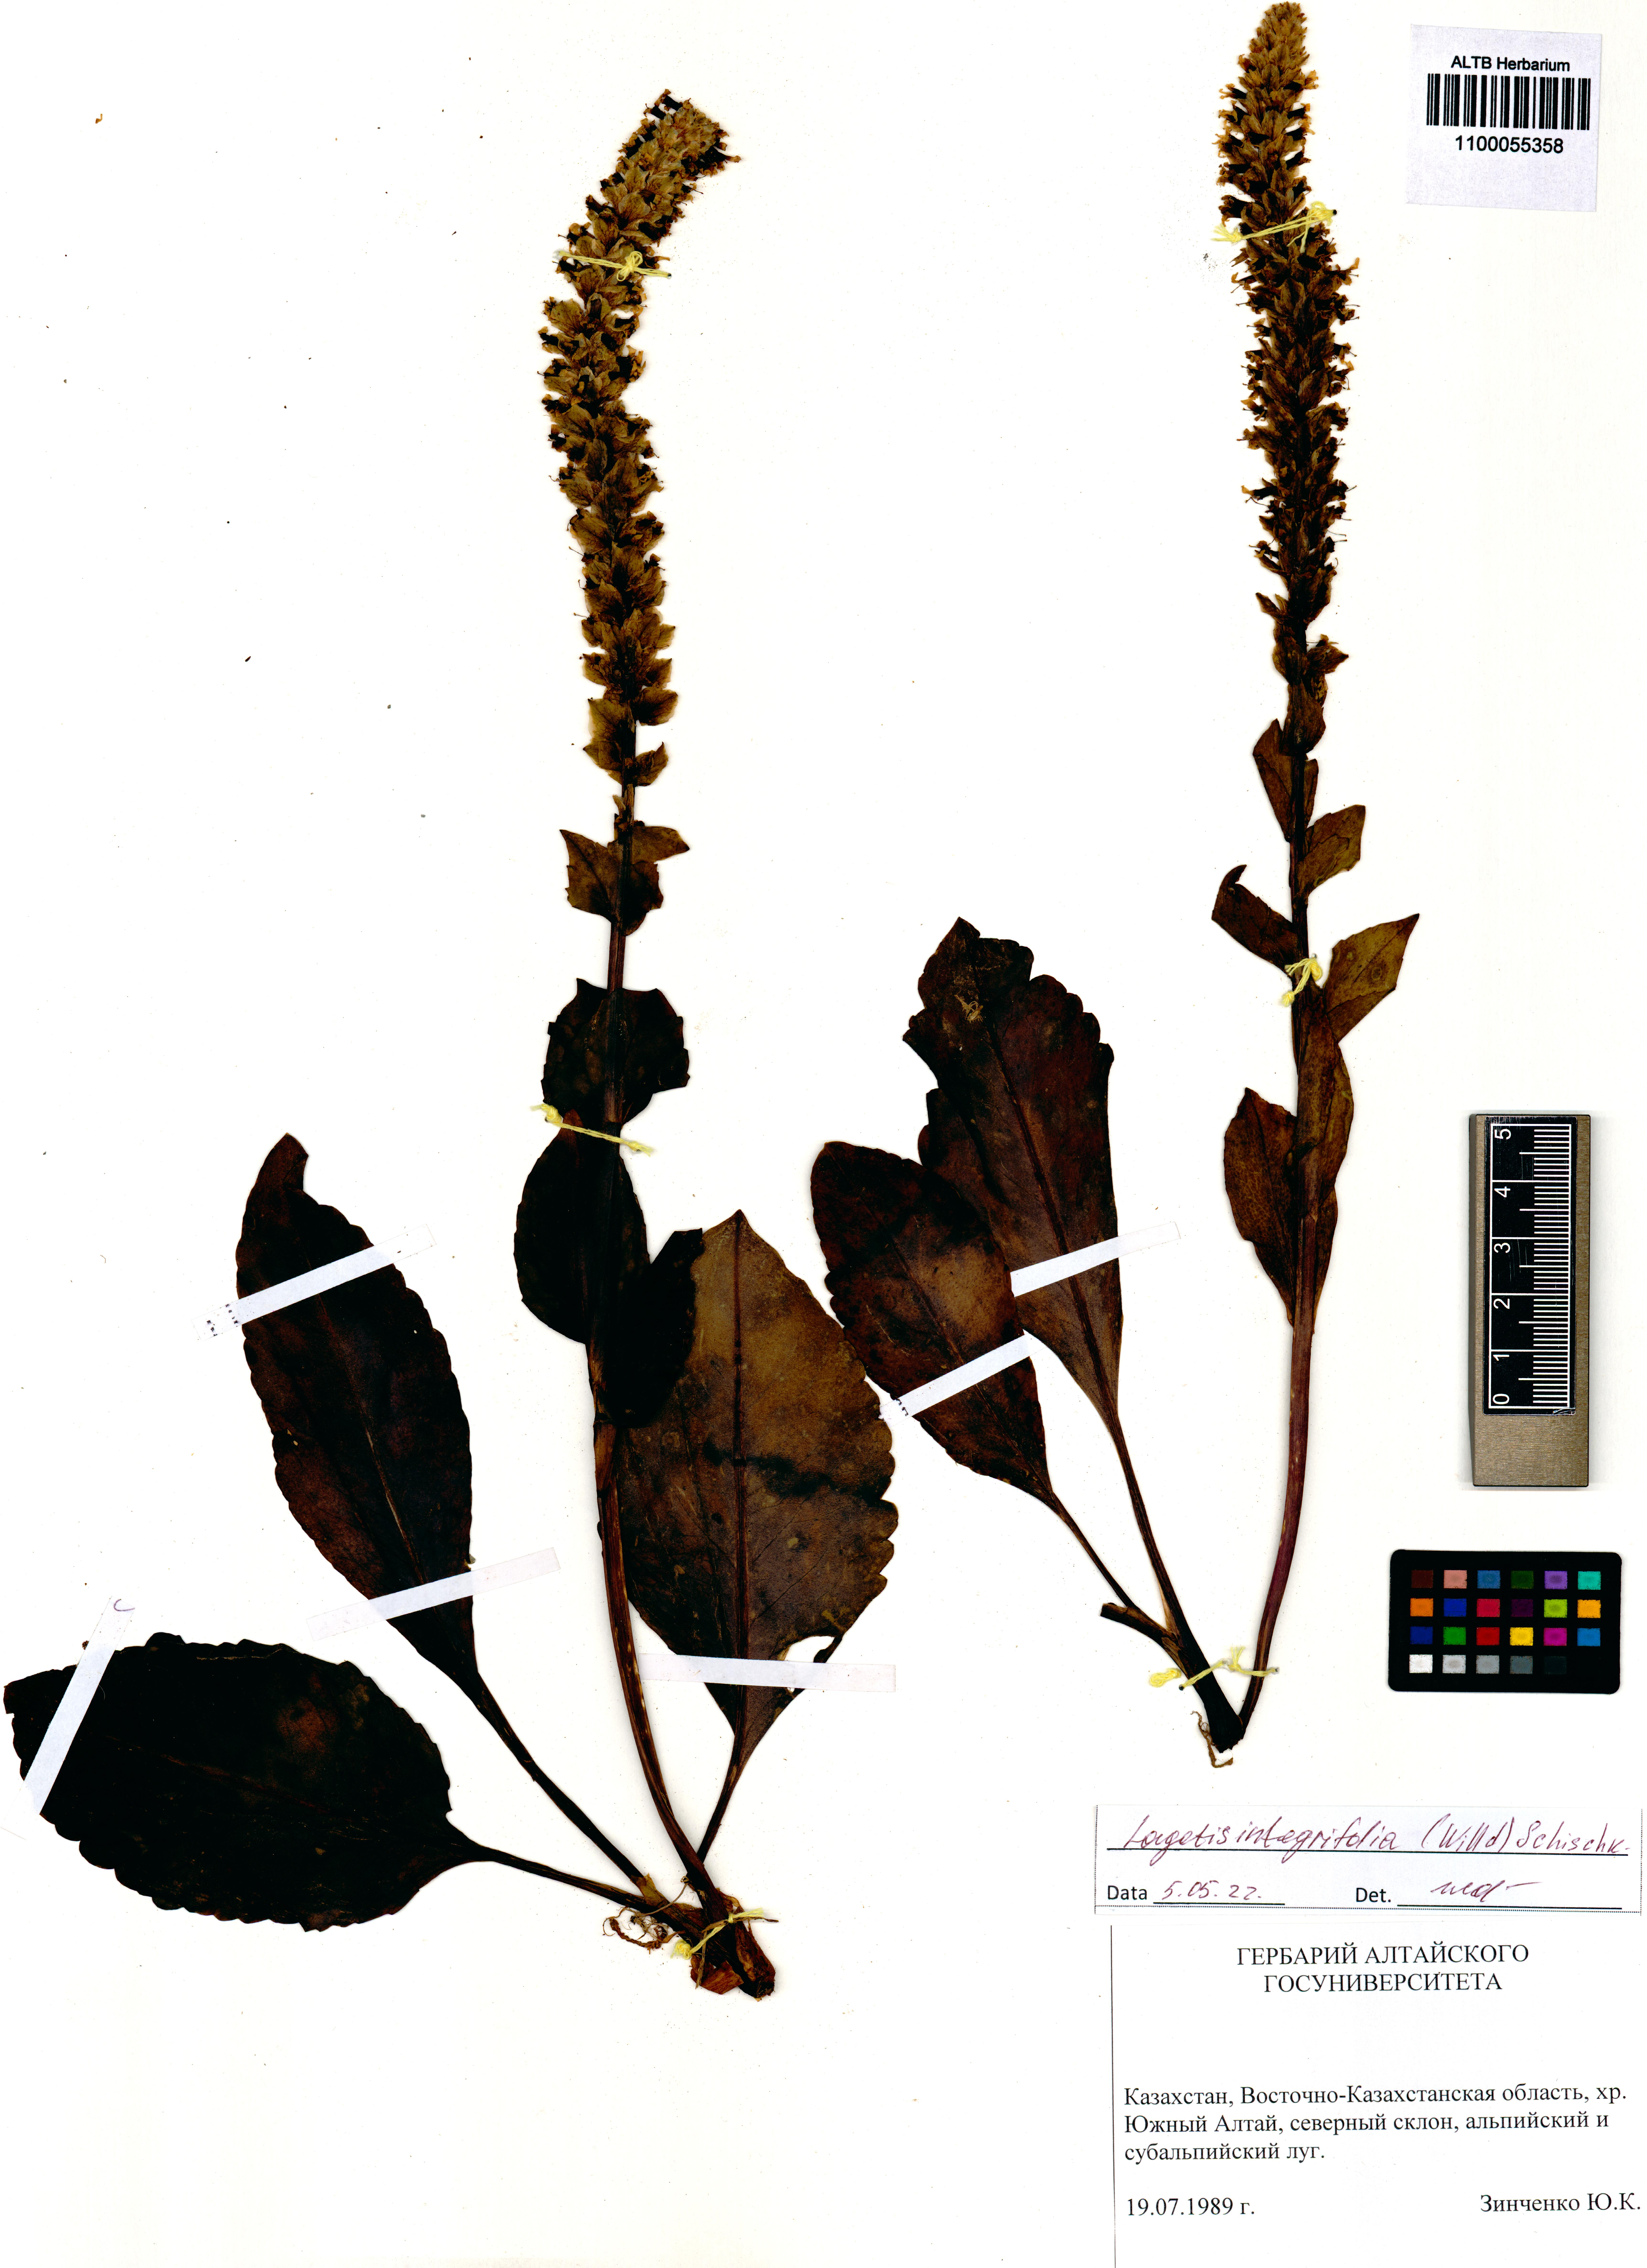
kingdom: Plantae
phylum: Tracheophyta
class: Magnoliopsida
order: Lamiales
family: Plantaginaceae
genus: Lagotis
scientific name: Lagotis integrifolia
